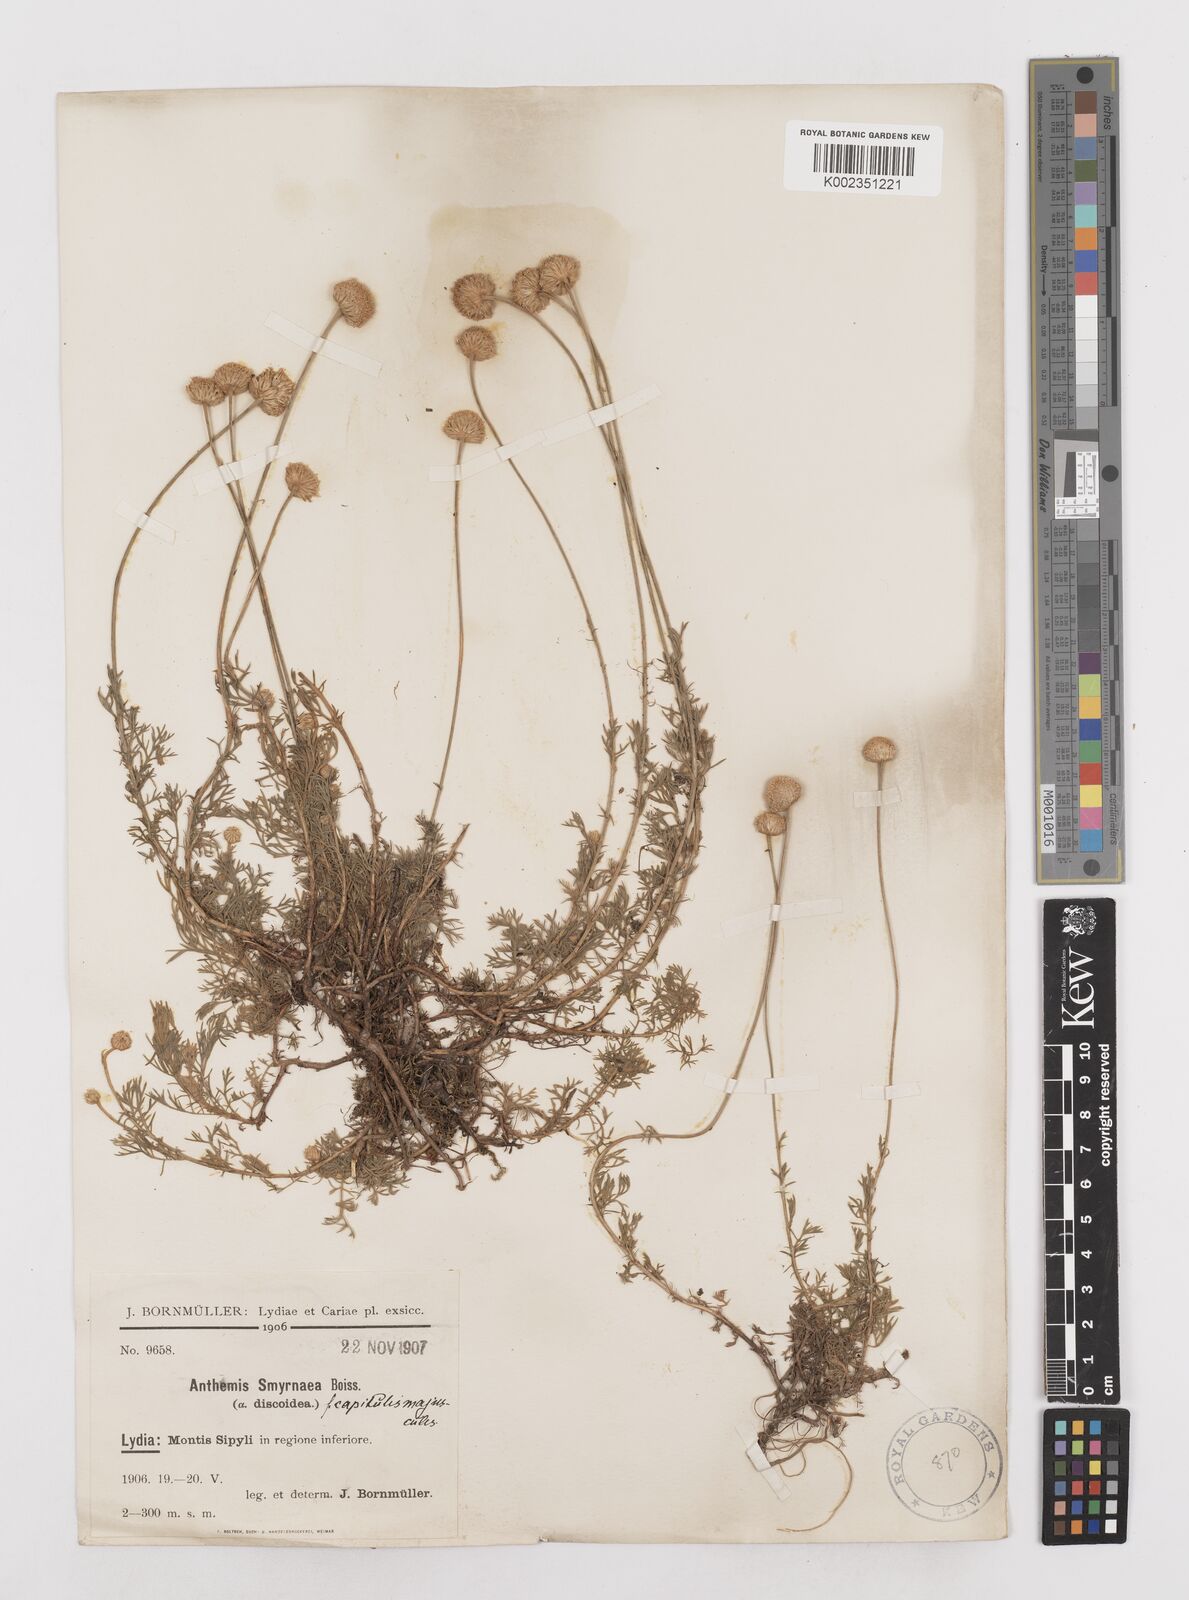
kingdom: Plantae
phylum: Tracheophyta
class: Magnoliopsida
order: Asterales
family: Asteraceae
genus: Anthemis
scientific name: Anthemis cretica
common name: Mountain dog-daisy
